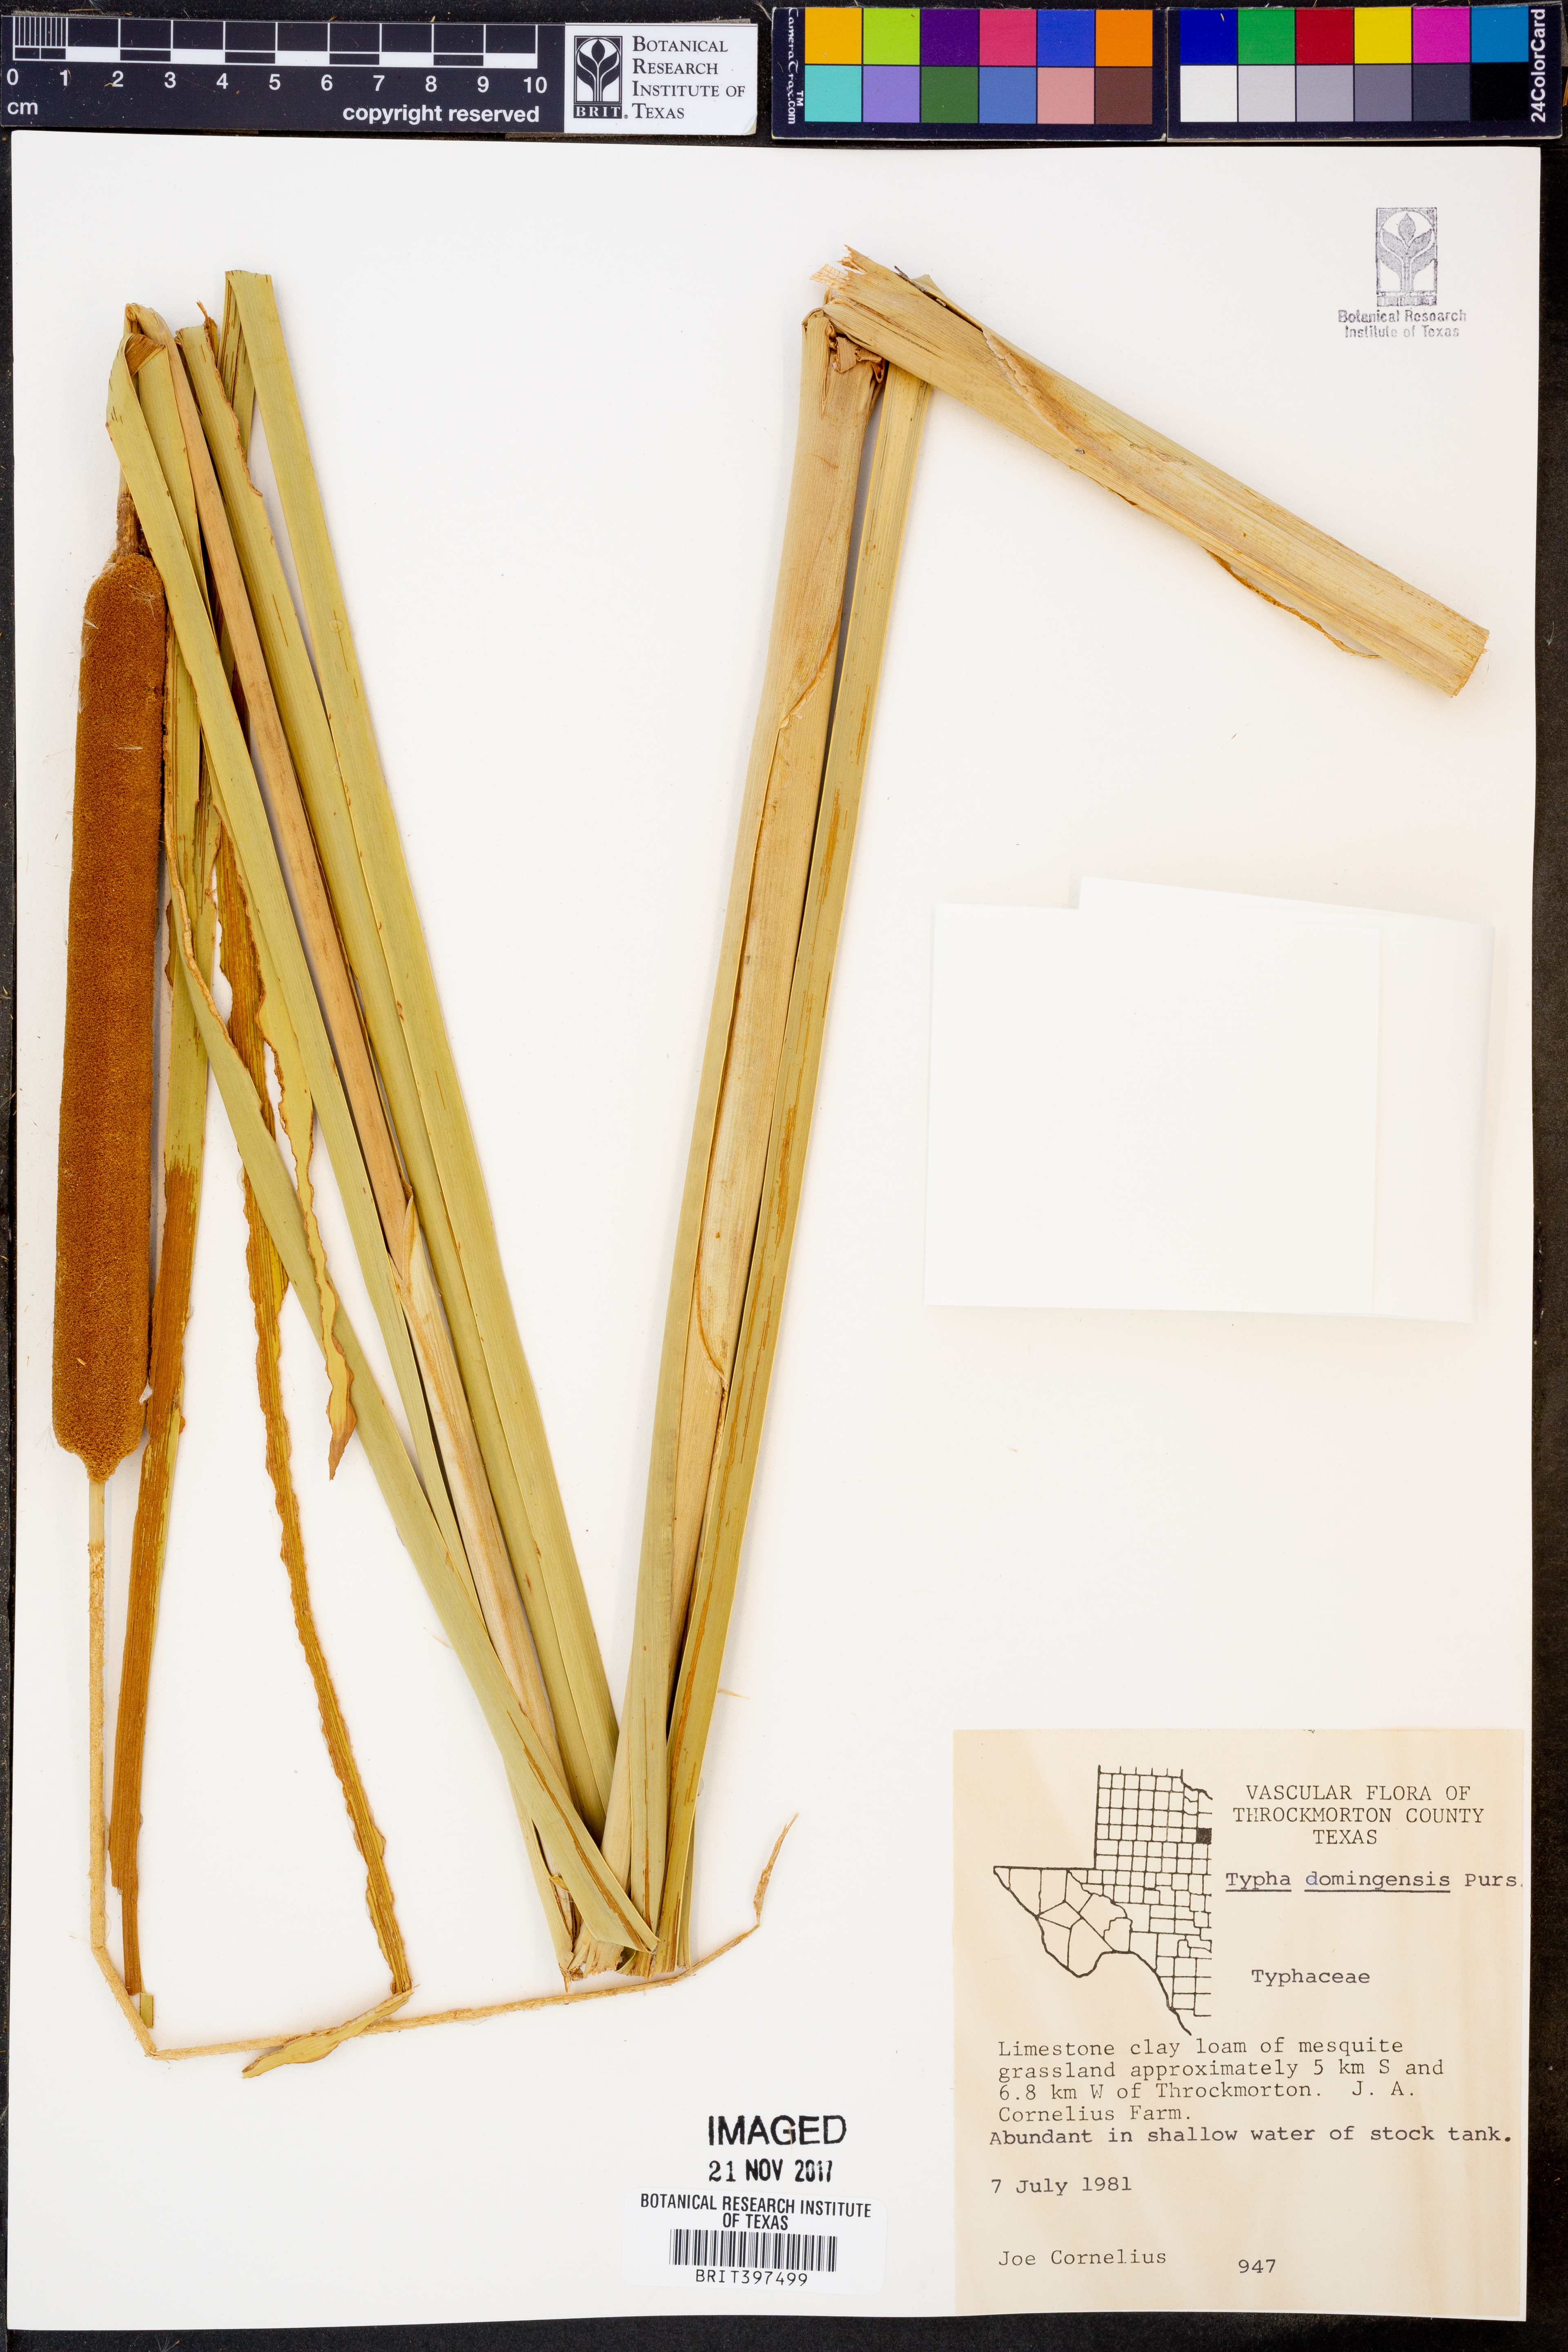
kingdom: Plantae
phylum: Tracheophyta
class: Liliopsida
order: Poales
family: Typhaceae
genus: Typha
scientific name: Typha domingensis
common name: Southern cattail
